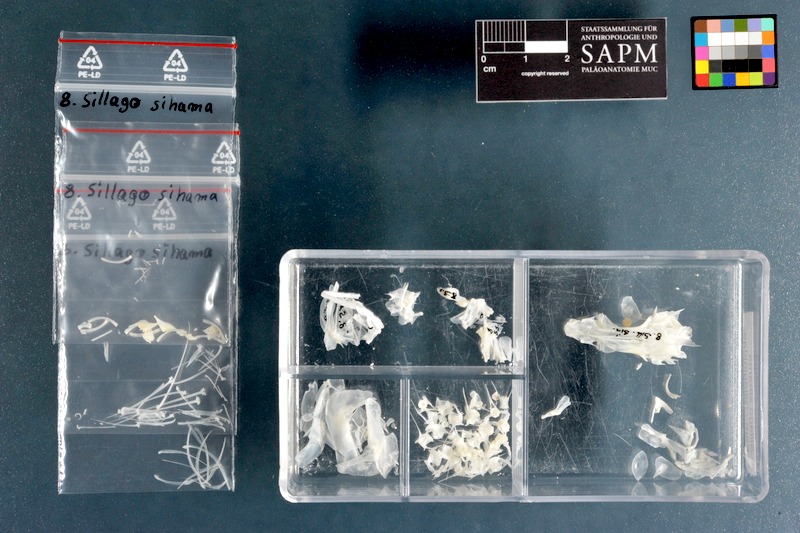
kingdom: Animalia
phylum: Chordata
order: Perciformes
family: Sillaginidae
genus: Sillago
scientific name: Sillago sihama
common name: Silver sillago
